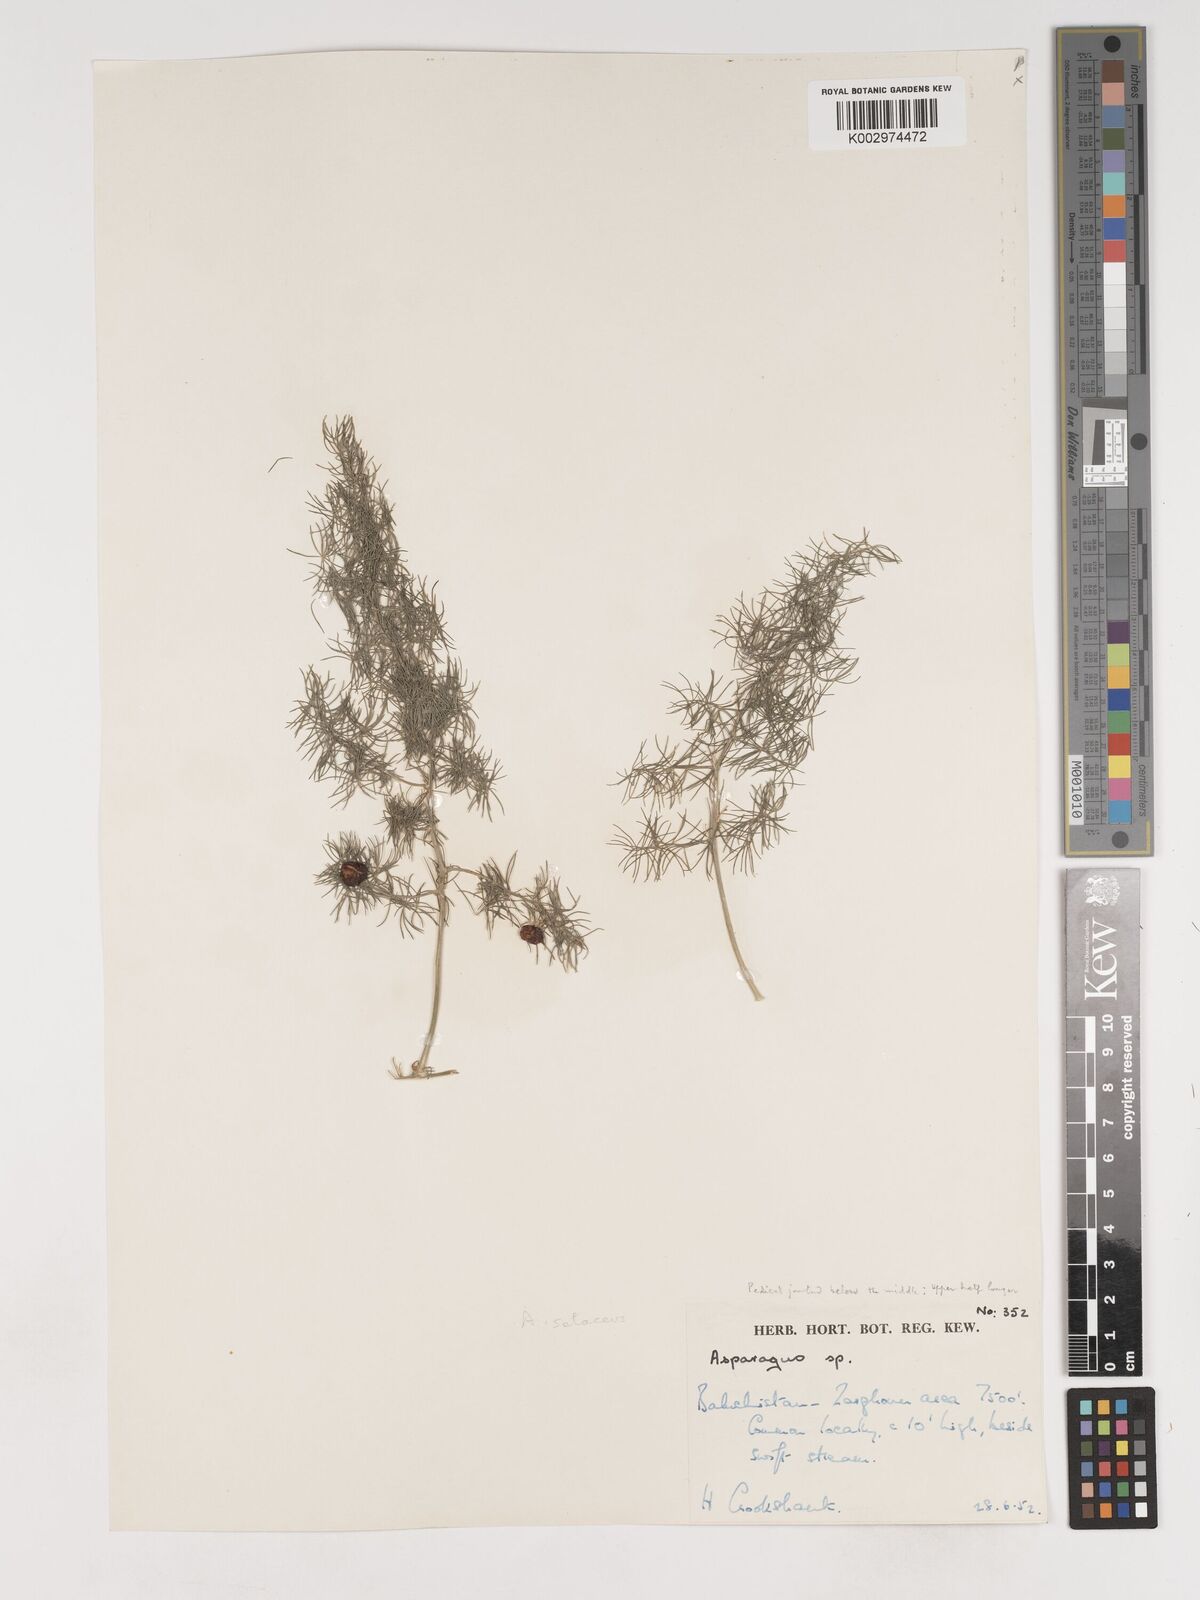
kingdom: Plantae
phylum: Tracheophyta
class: Liliopsida
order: Asparagales
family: Asparagaceae
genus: Asparagus
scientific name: Asparagus
